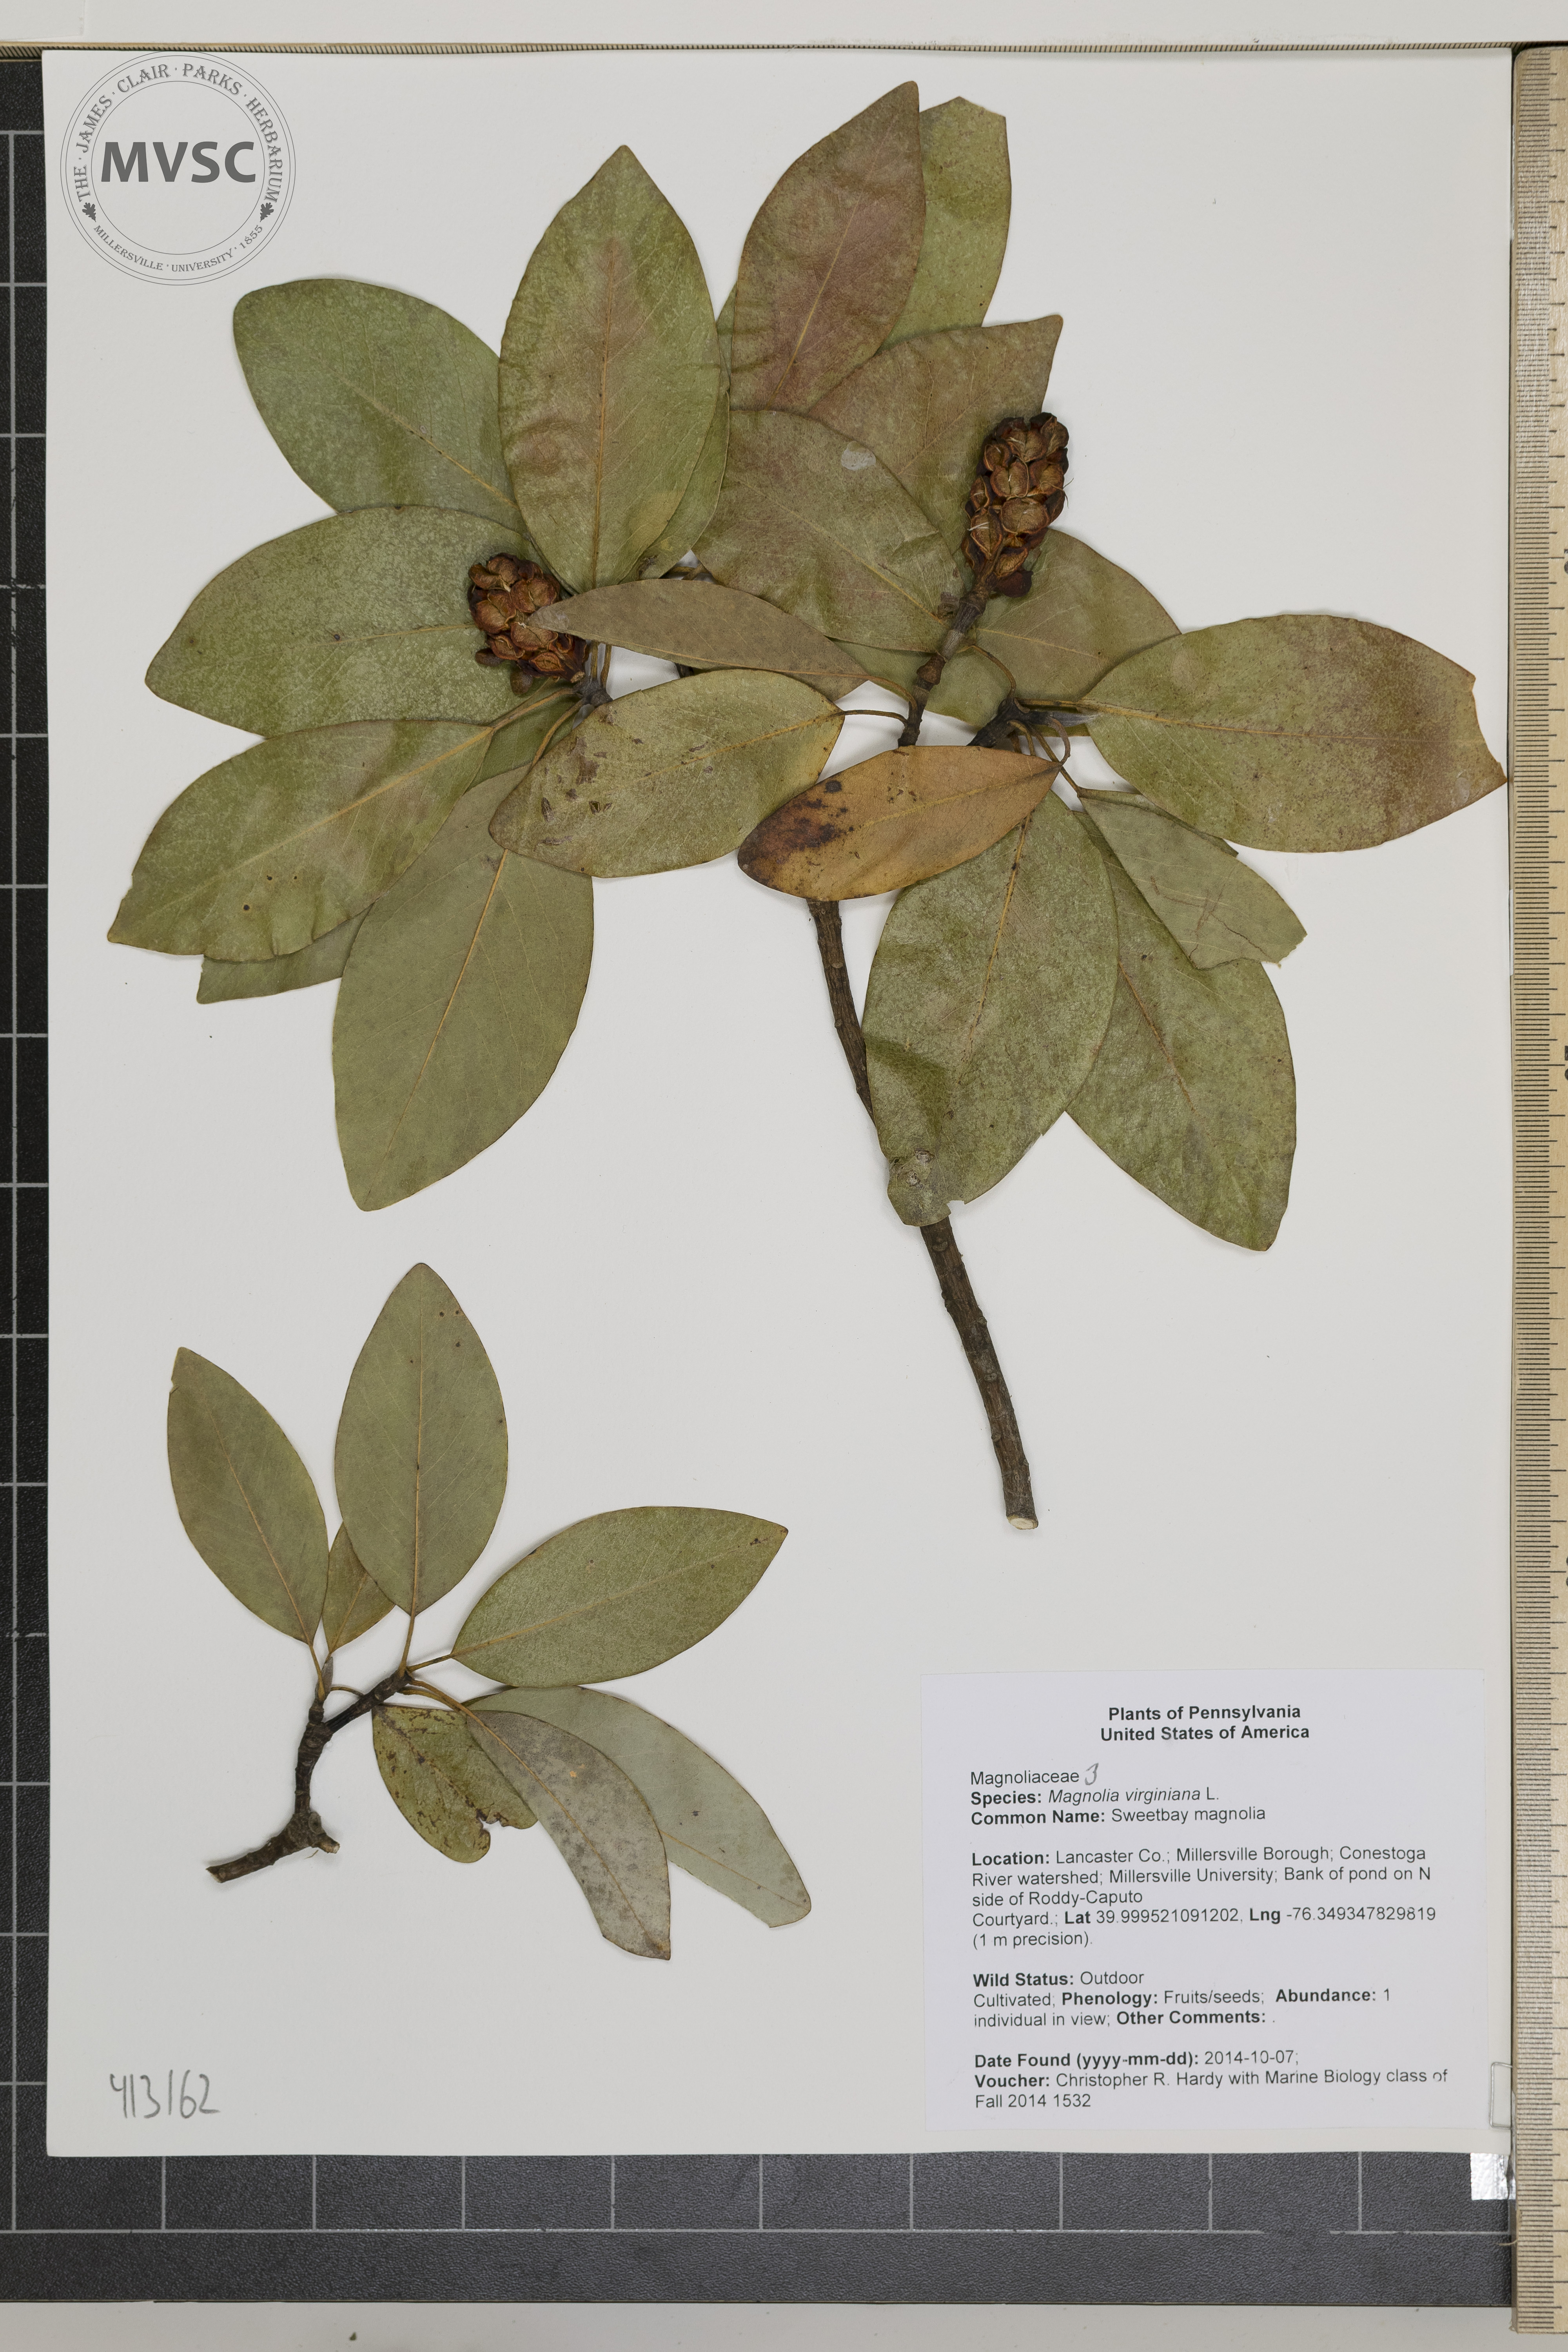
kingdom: Plantae
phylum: Tracheophyta
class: Magnoliopsida
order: Magnoliales
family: Magnoliaceae
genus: Magnolia
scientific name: Magnolia virginiana
